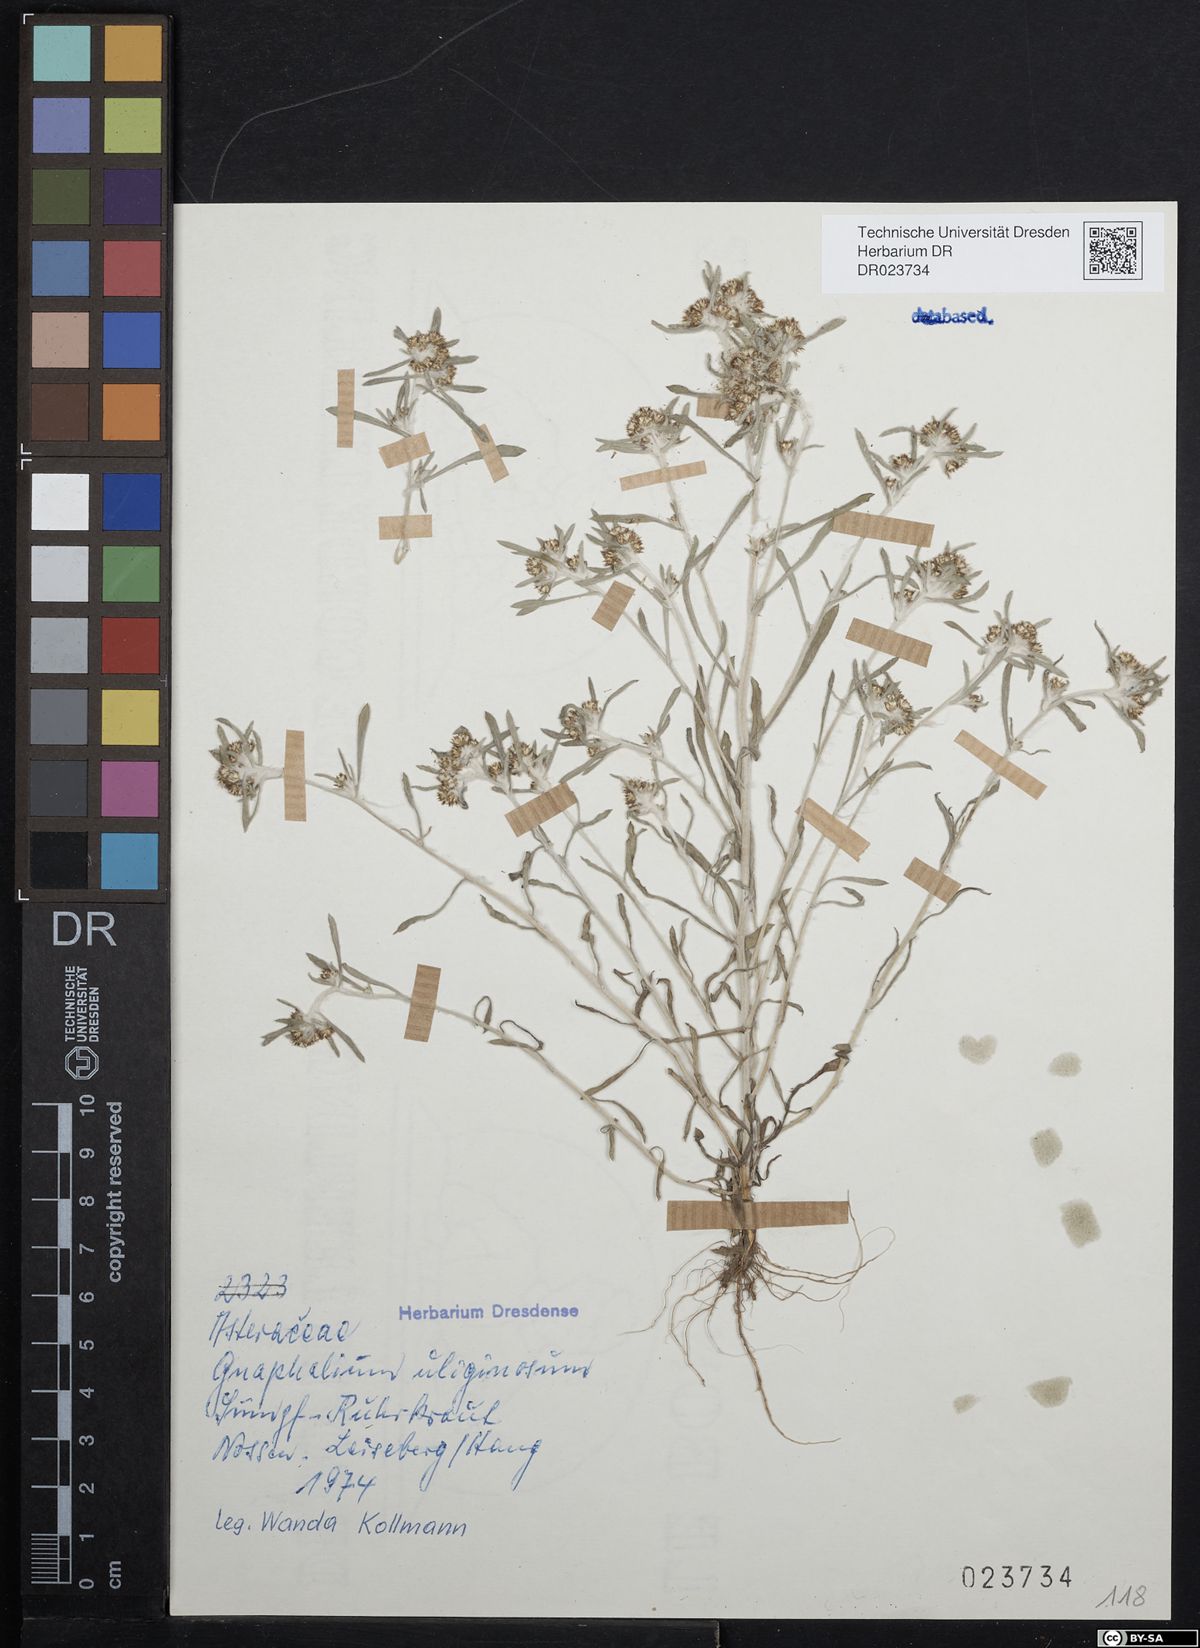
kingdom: Plantae
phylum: Tracheophyta
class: Magnoliopsida
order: Asterales
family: Asteraceae
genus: Gnaphalium
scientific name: Gnaphalium uliginosum
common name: Marsh cudweed
